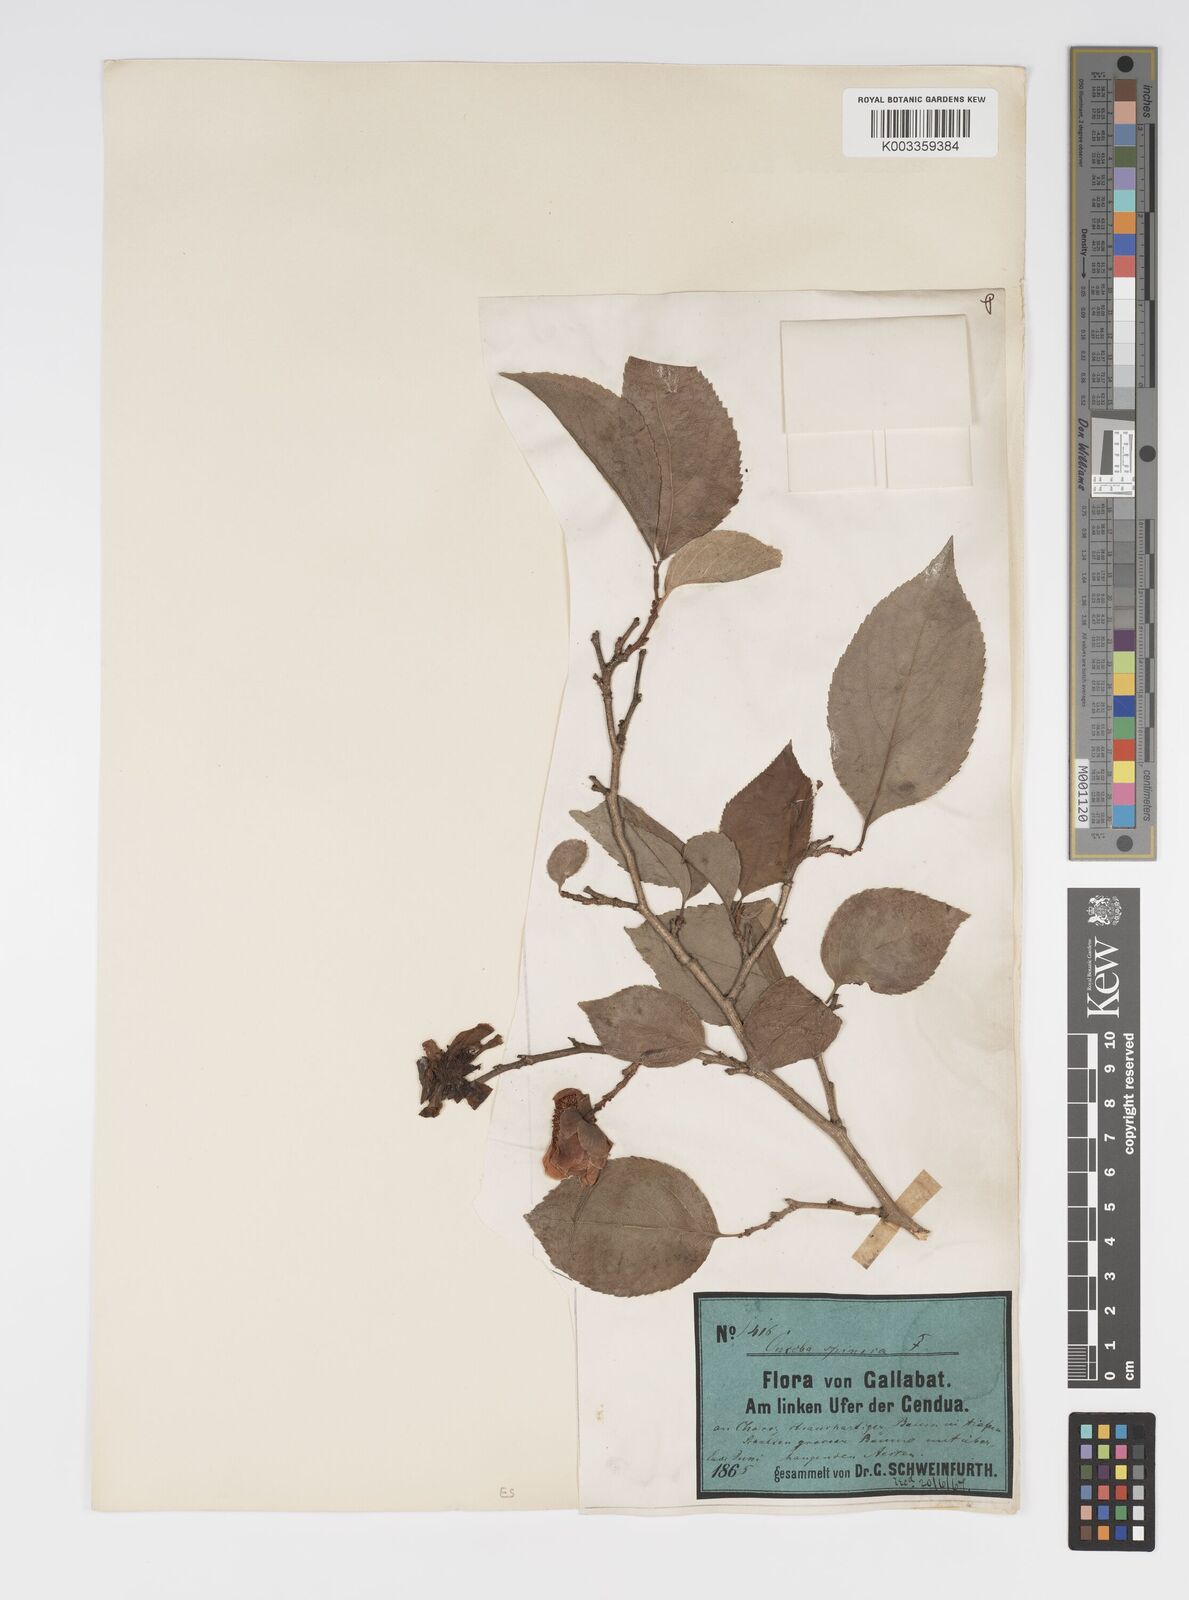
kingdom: Plantae
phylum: Tracheophyta
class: Magnoliopsida
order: Malpighiales
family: Salicaceae
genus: Oncoba
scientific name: Oncoba spinosa
